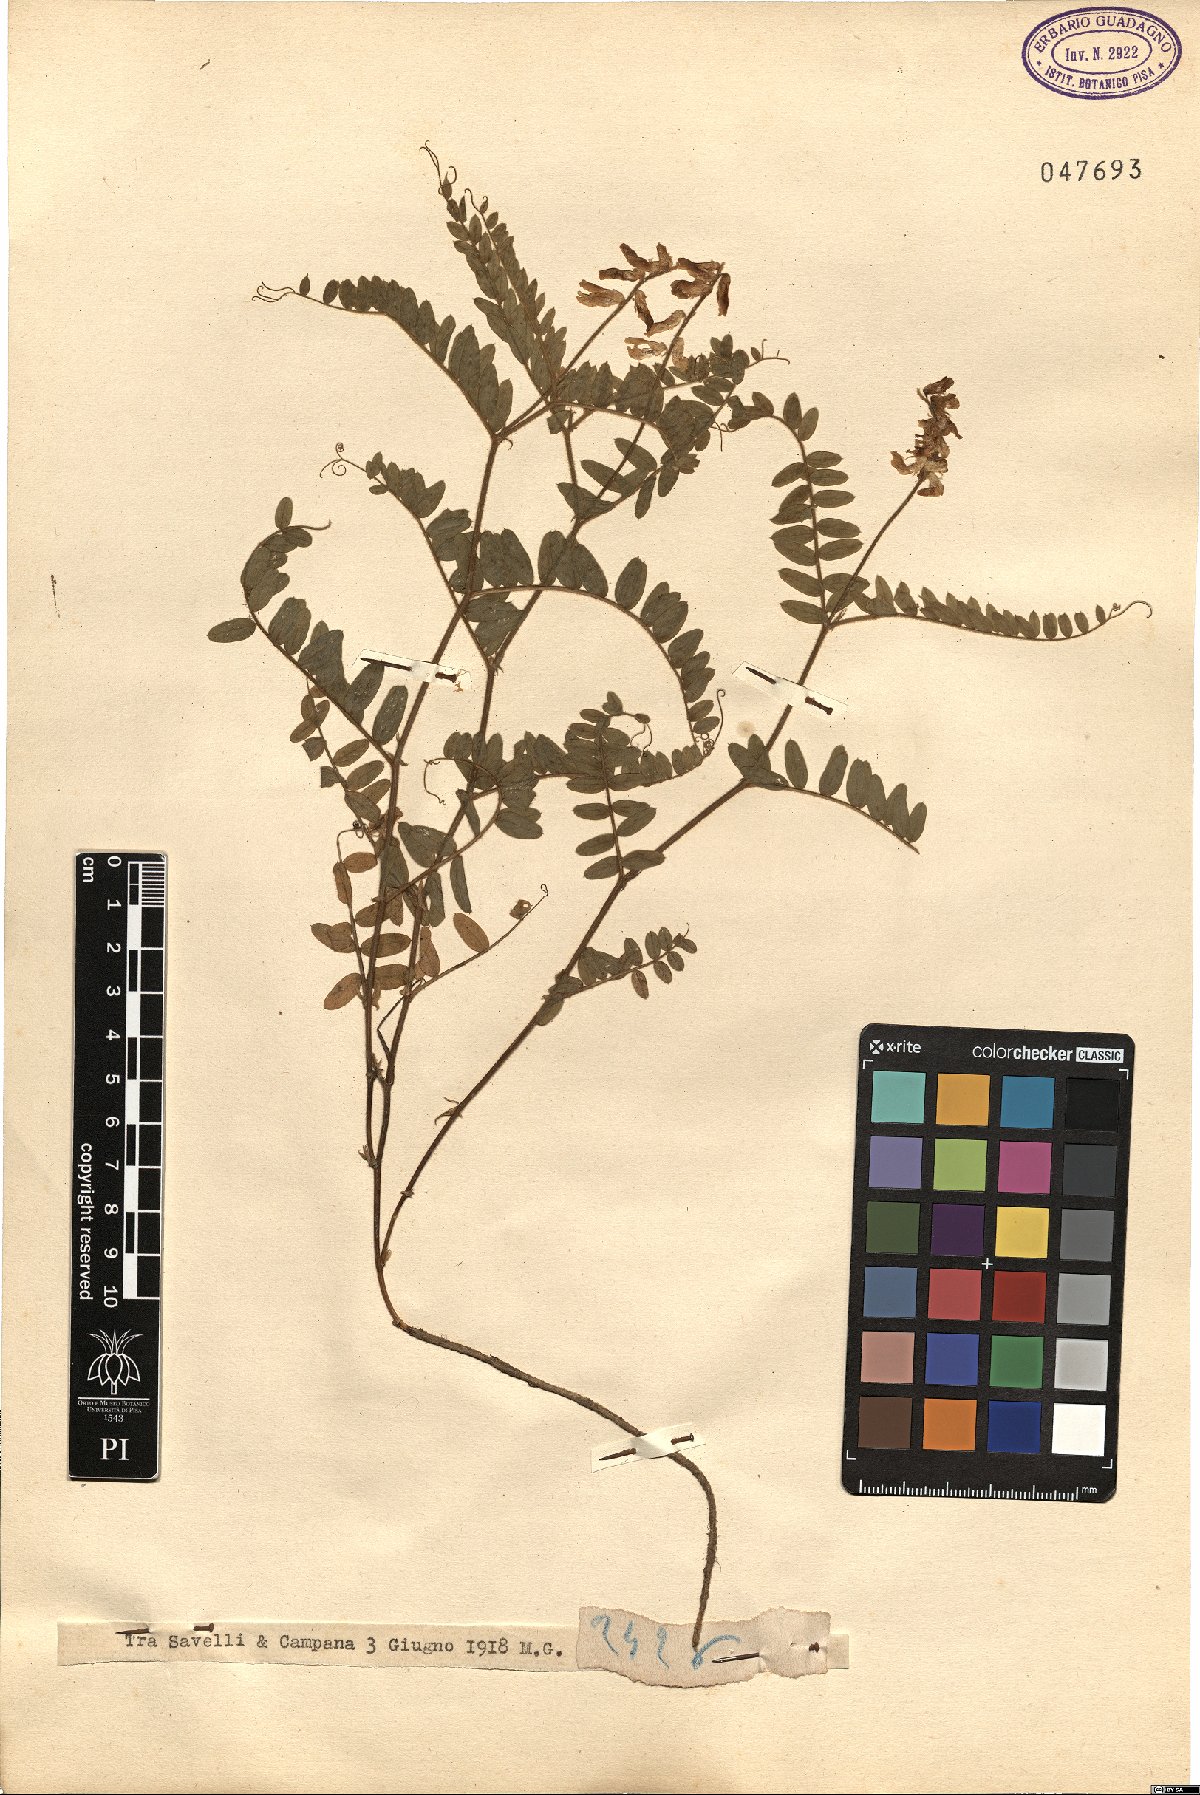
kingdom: Plantae
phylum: Tracheophyta
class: Magnoliopsida
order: Fabales
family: Fabaceae
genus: Vicia
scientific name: Vicia
